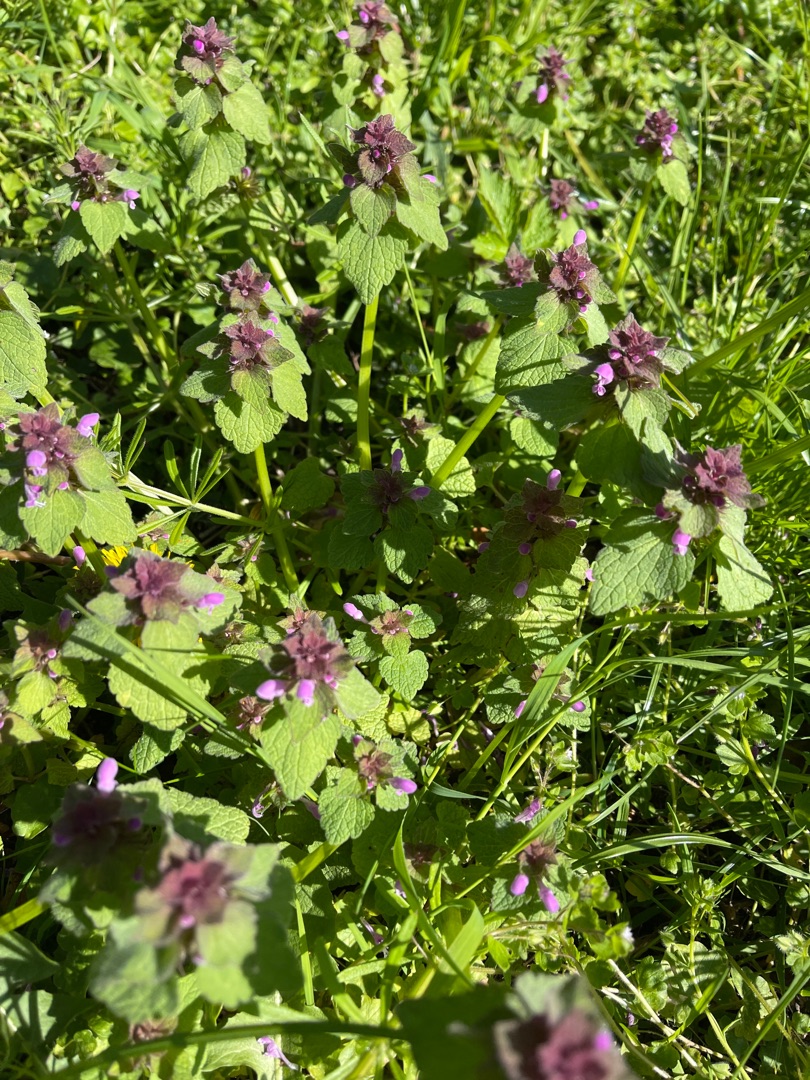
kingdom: Plantae
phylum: Tracheophyta
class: Magnoliopsida
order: Lamiales
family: Lamiaceae
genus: Lamium
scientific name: Lamium purpureum
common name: Rød tvetand
